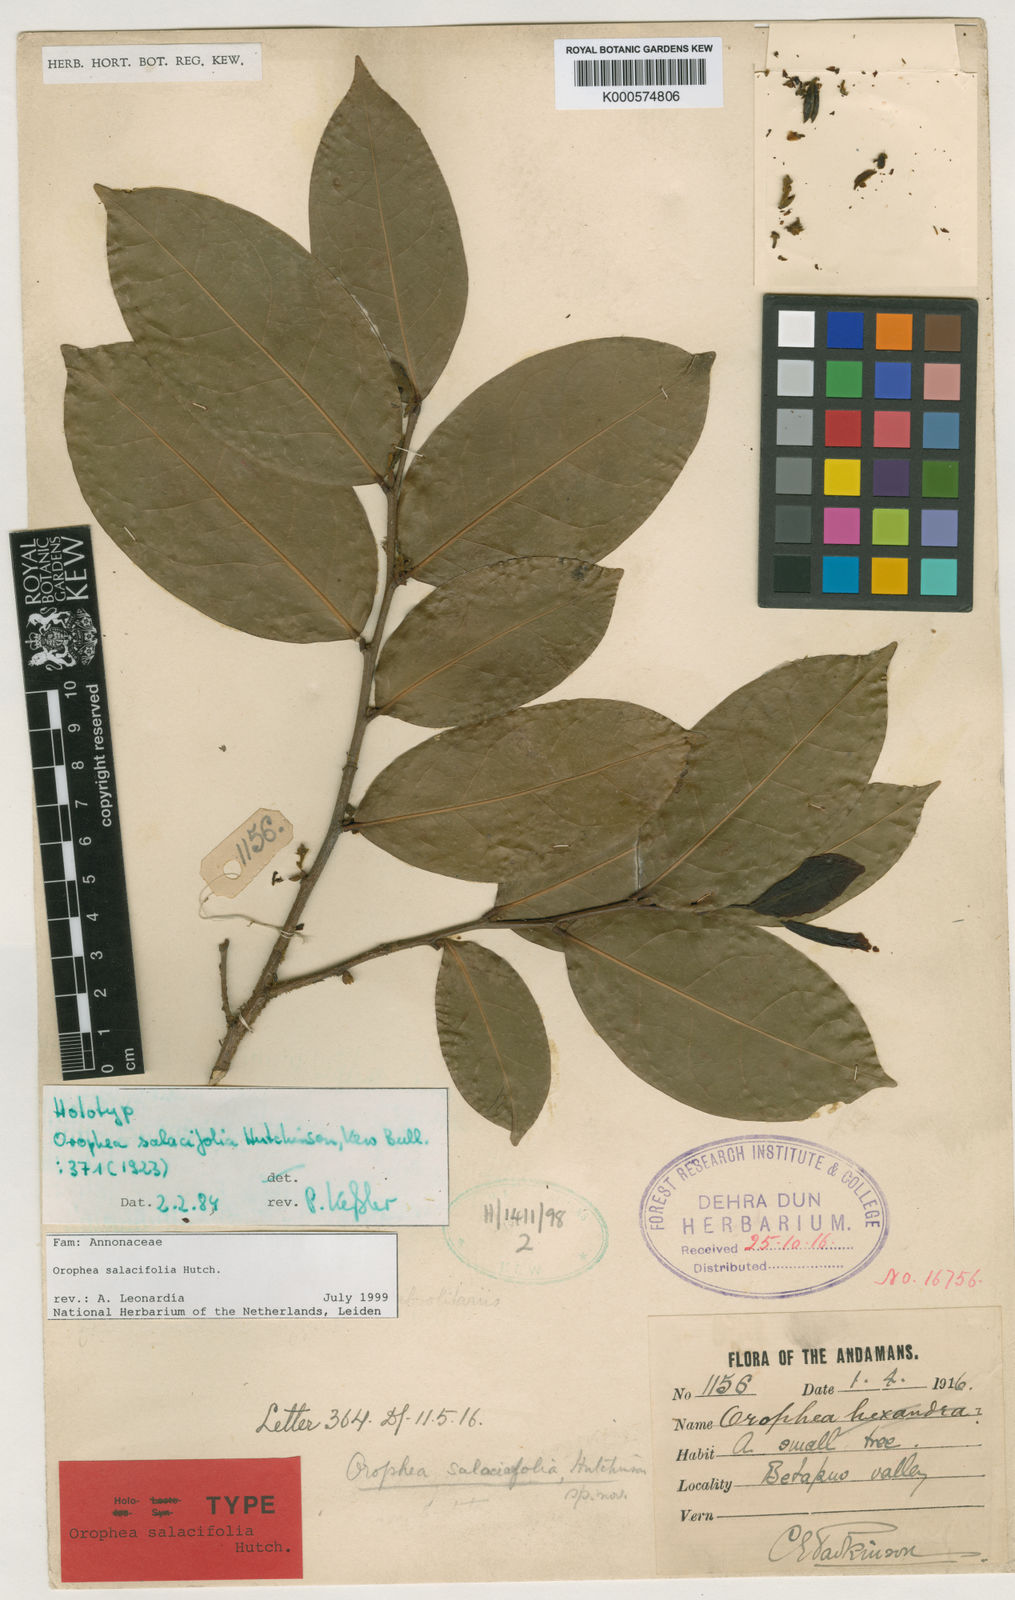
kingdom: Plantae
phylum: Tracheophyta
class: Magnoliopsida
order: Magnoliales
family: Annonaceae
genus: Orophea
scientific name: Orophea salacifolia
